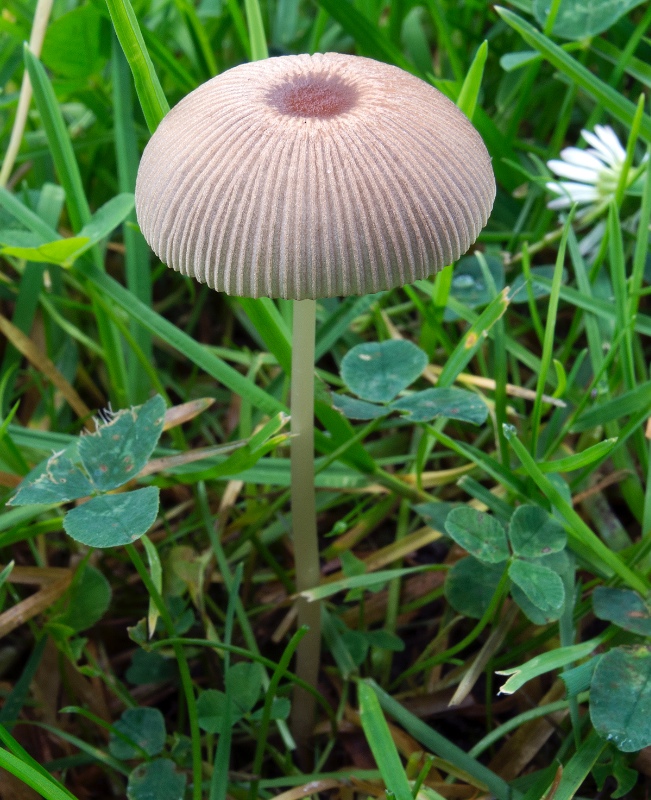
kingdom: Fungi
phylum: Basidiomycota
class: Agaricomycetes
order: Agaricales
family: Psathyrellaceae
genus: Parasola
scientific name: Parasola auricoma
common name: hansens hjulhat
